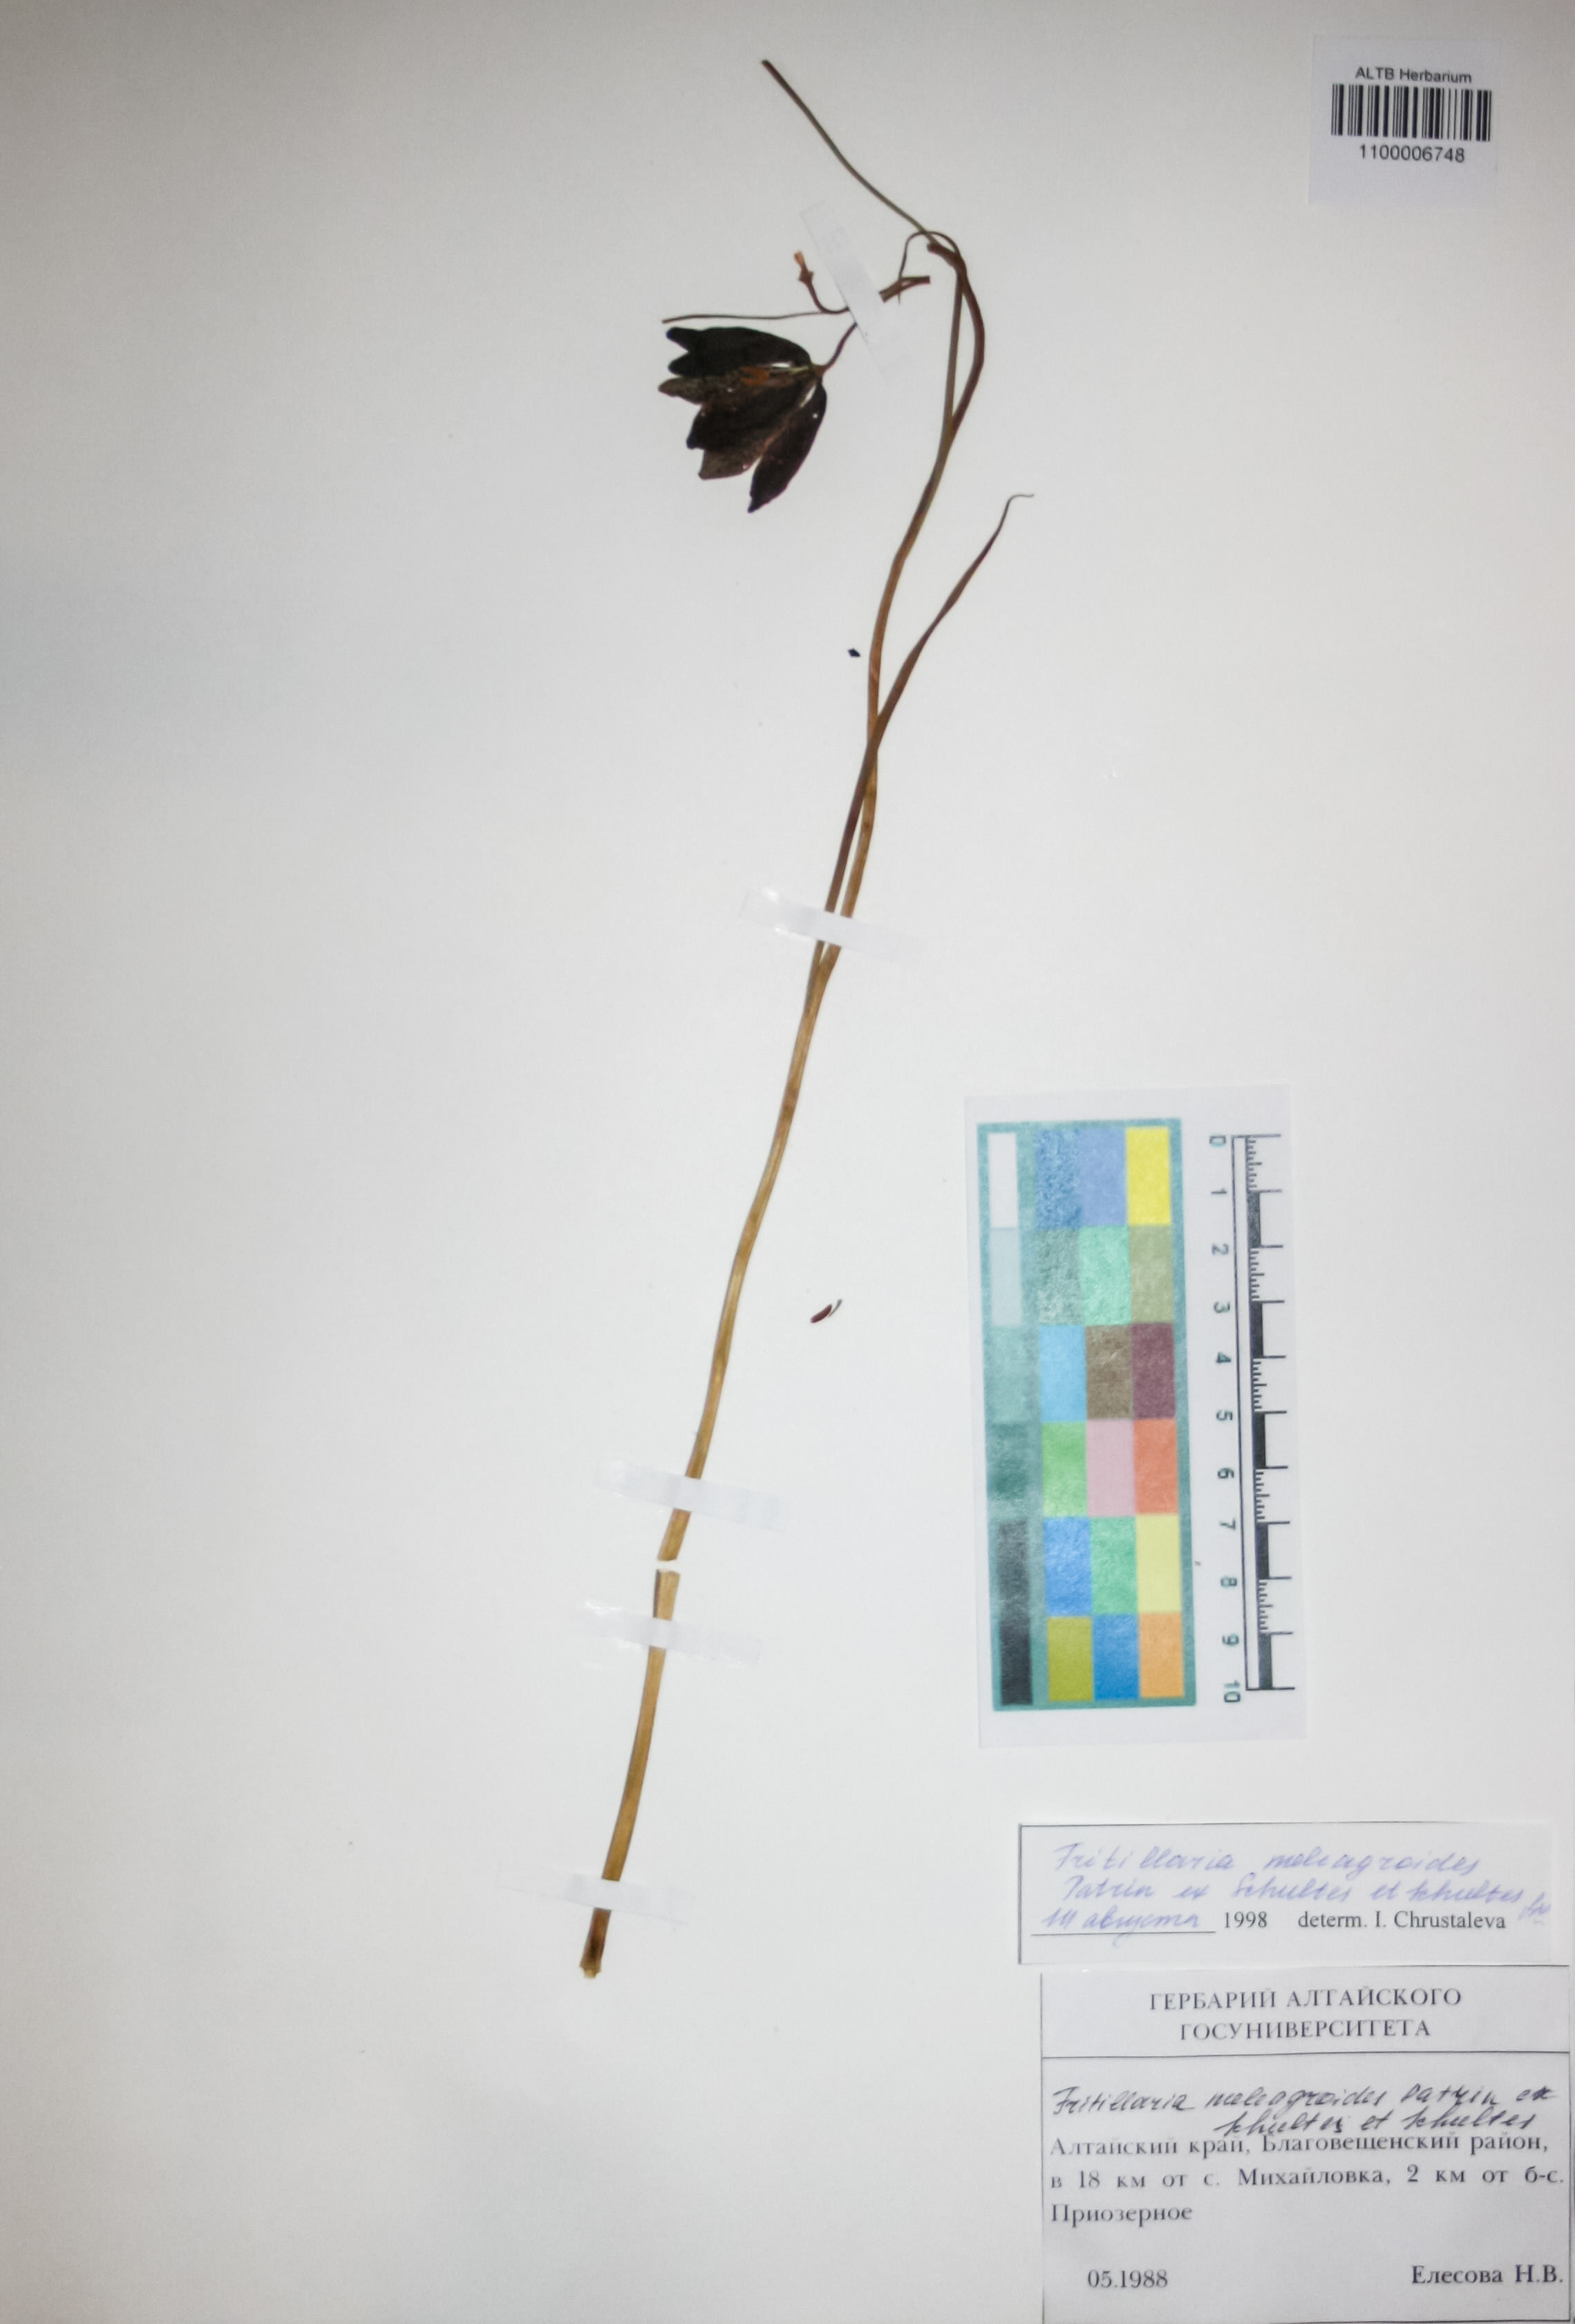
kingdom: Plantae
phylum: Tracheophyta
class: Liliopsida
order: Liliales
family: Liliaceae
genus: Fritillaria
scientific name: Fritillaria meleagroides
